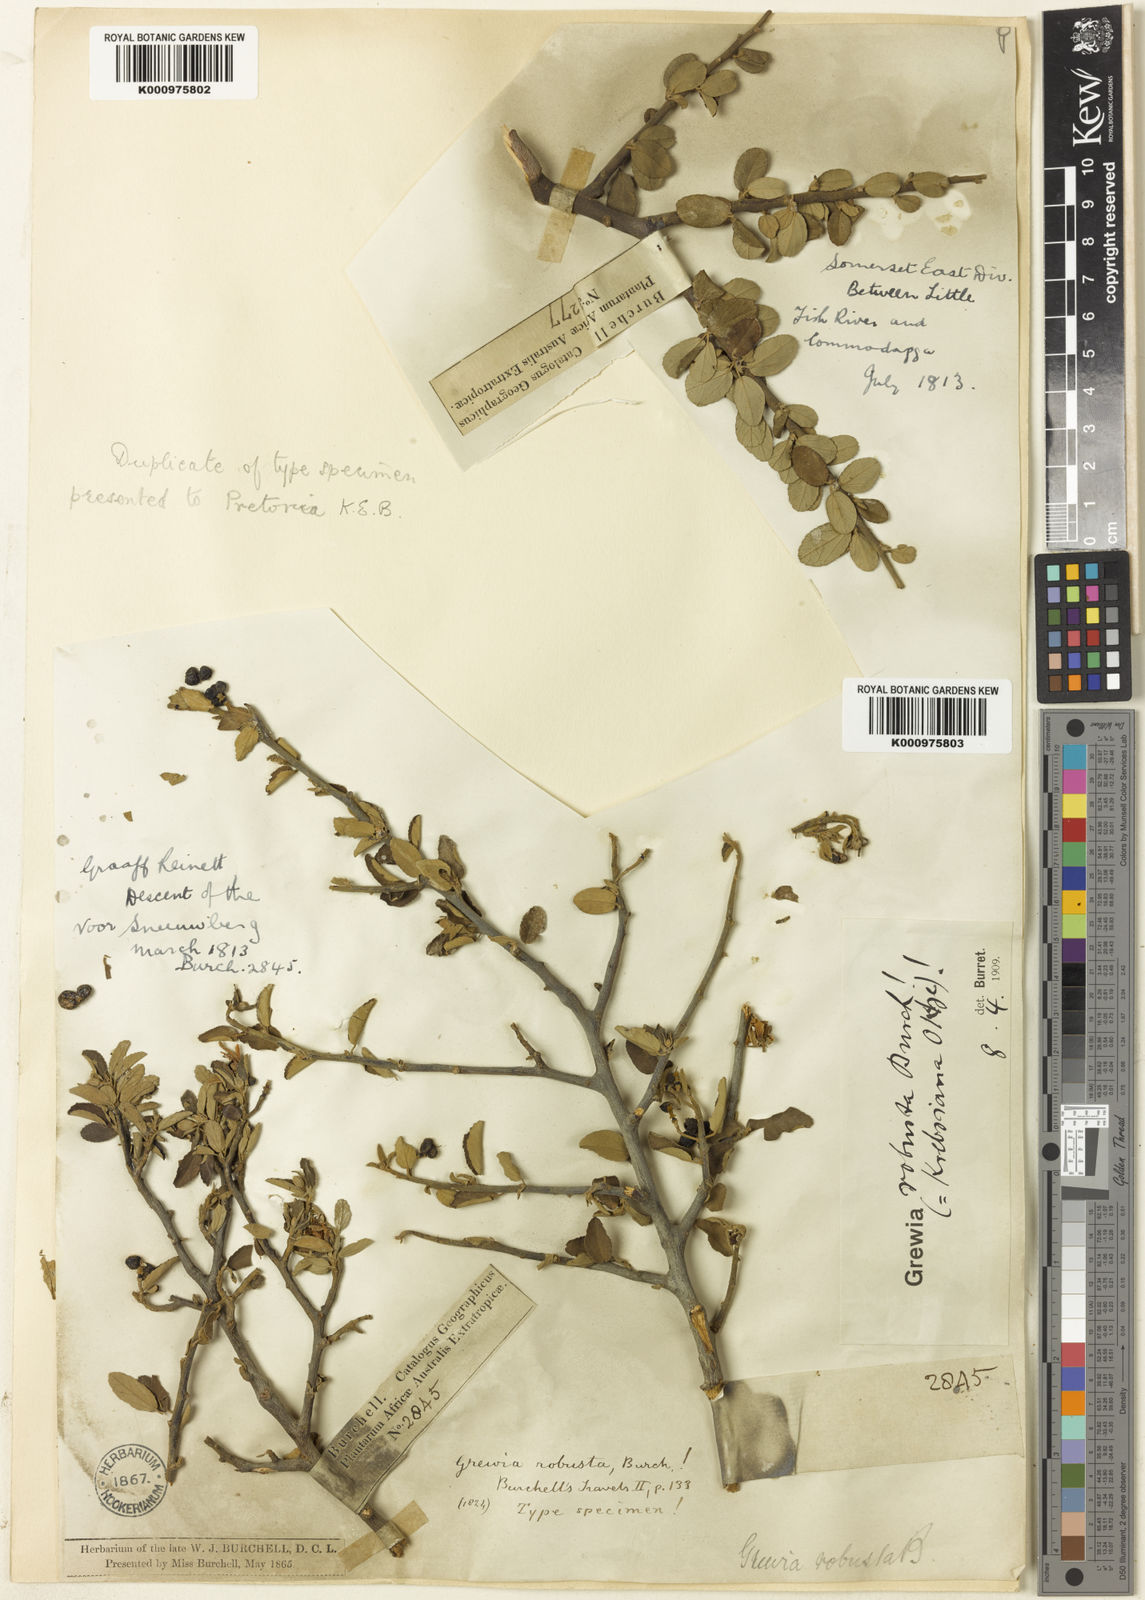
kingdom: Plantae
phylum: Tracheophyta
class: Polypodiopsida
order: Polypodiales
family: Tectariaceae
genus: Tectaria
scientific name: Tectaria pluriseriata
